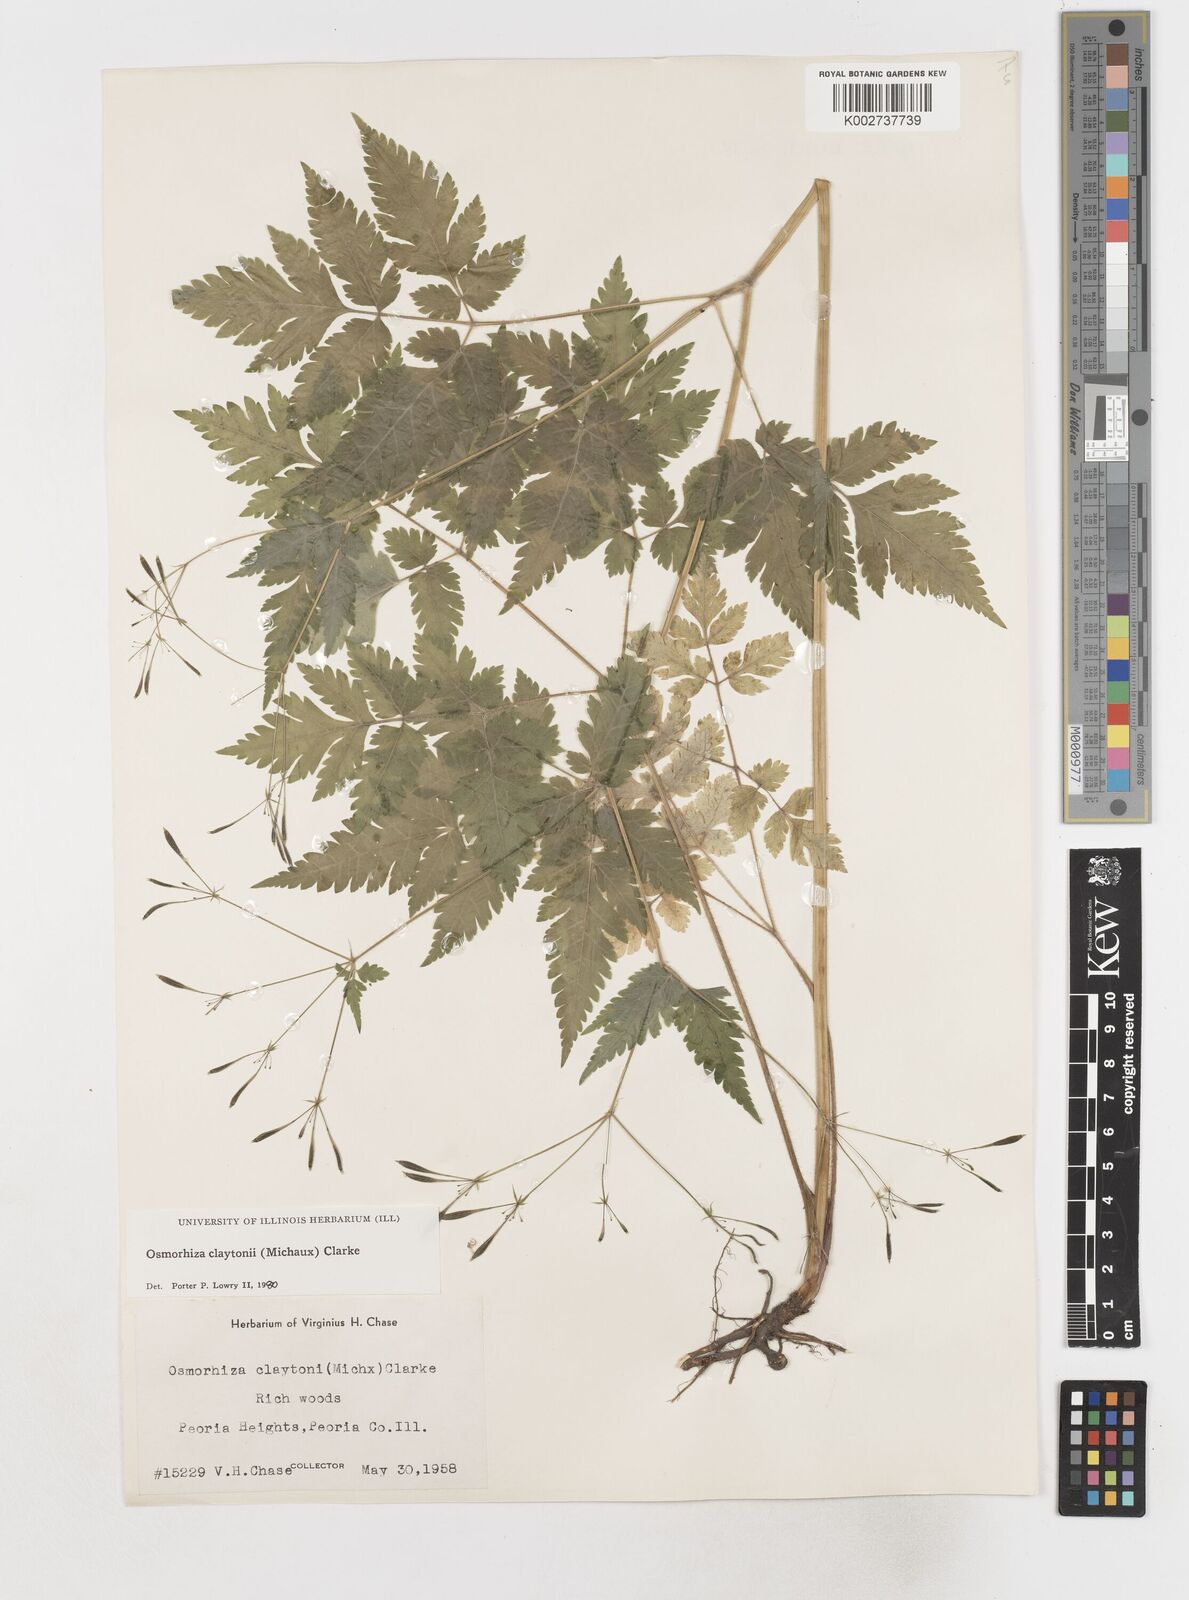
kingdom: Plantae
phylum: Tracheophyta
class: Magnoliopsida
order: Apiales
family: Apiaceae
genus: Osmorhiza
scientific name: Osmorhiza claytonii
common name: Hairy sweet cicely
